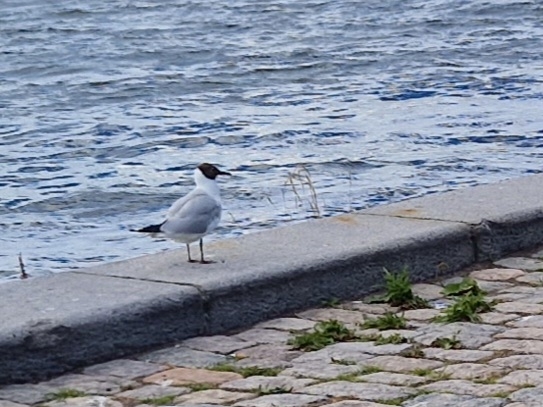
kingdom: Animalia
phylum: Chordata
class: Aves
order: Charadriiformes
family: Laridae
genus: Chroicocephalus
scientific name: Chroicocephalus ridibundus
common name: Hættemåge
